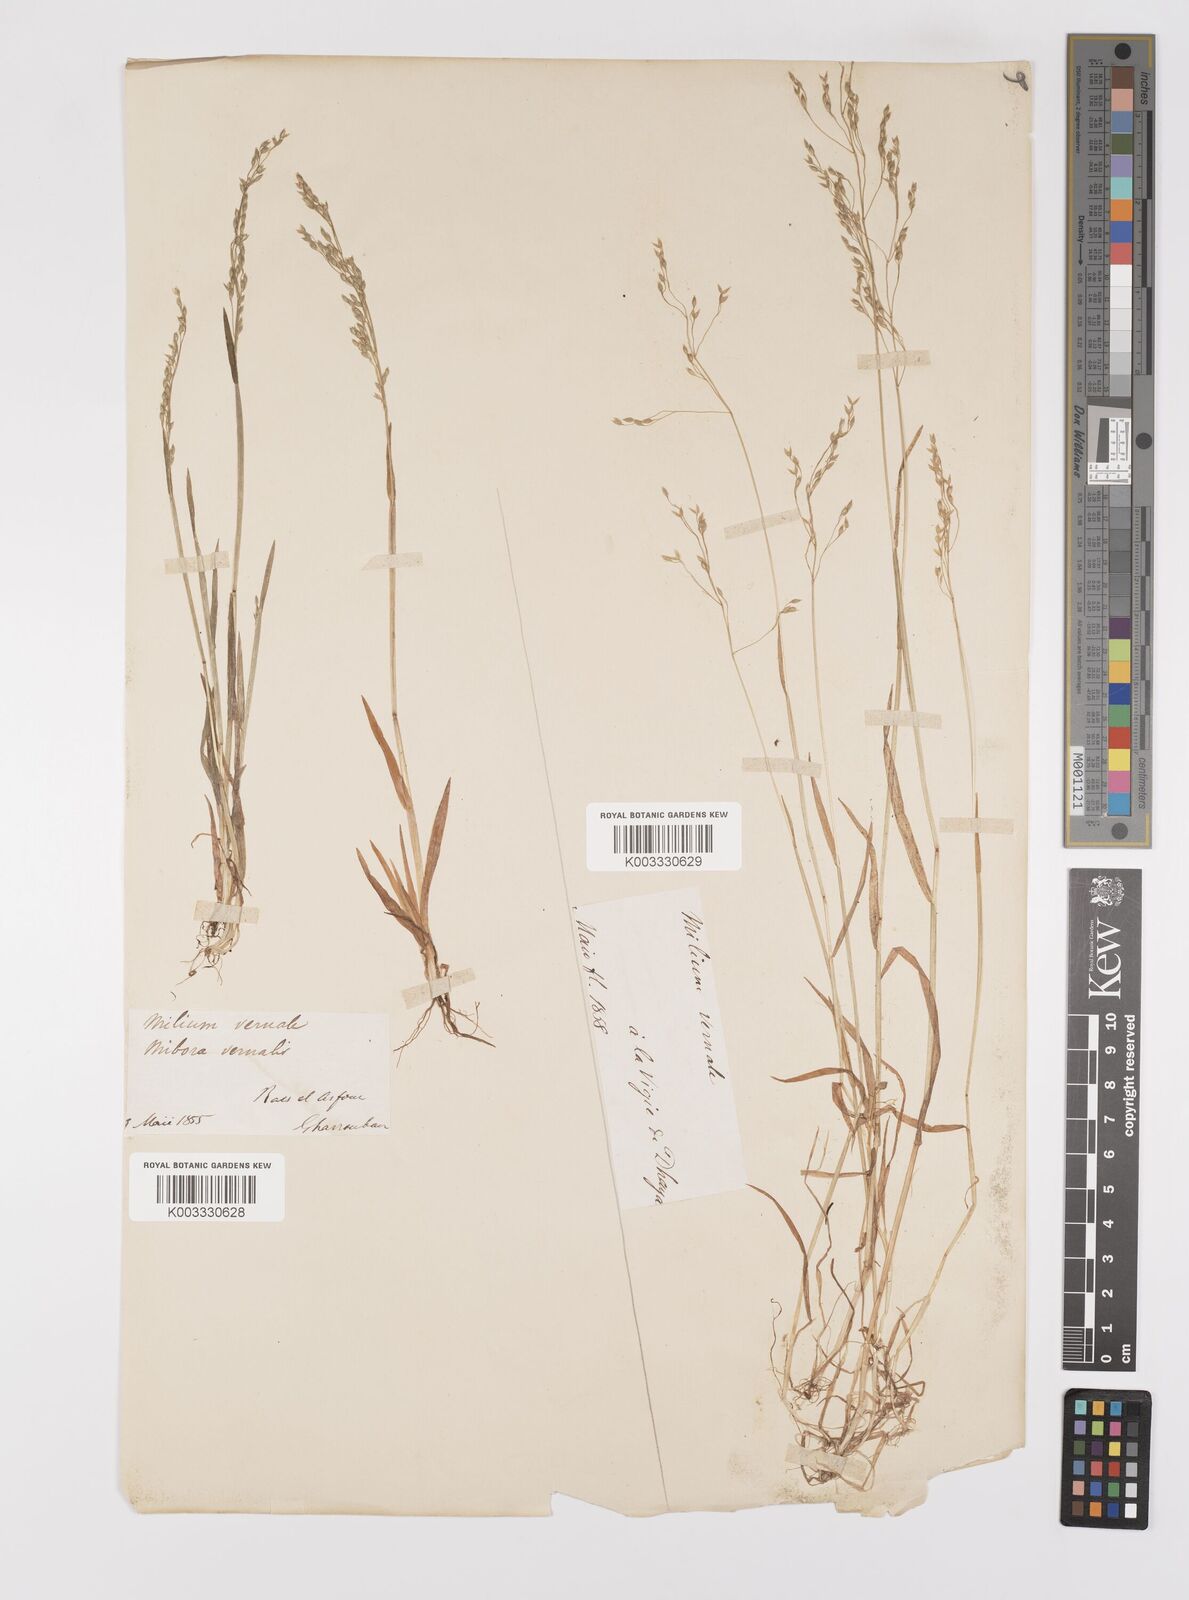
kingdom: Plantae
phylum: Tracheophyta
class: Liliopsida
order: Poales
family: Poaceae
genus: Milium
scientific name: Milium vernale
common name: Early millet
